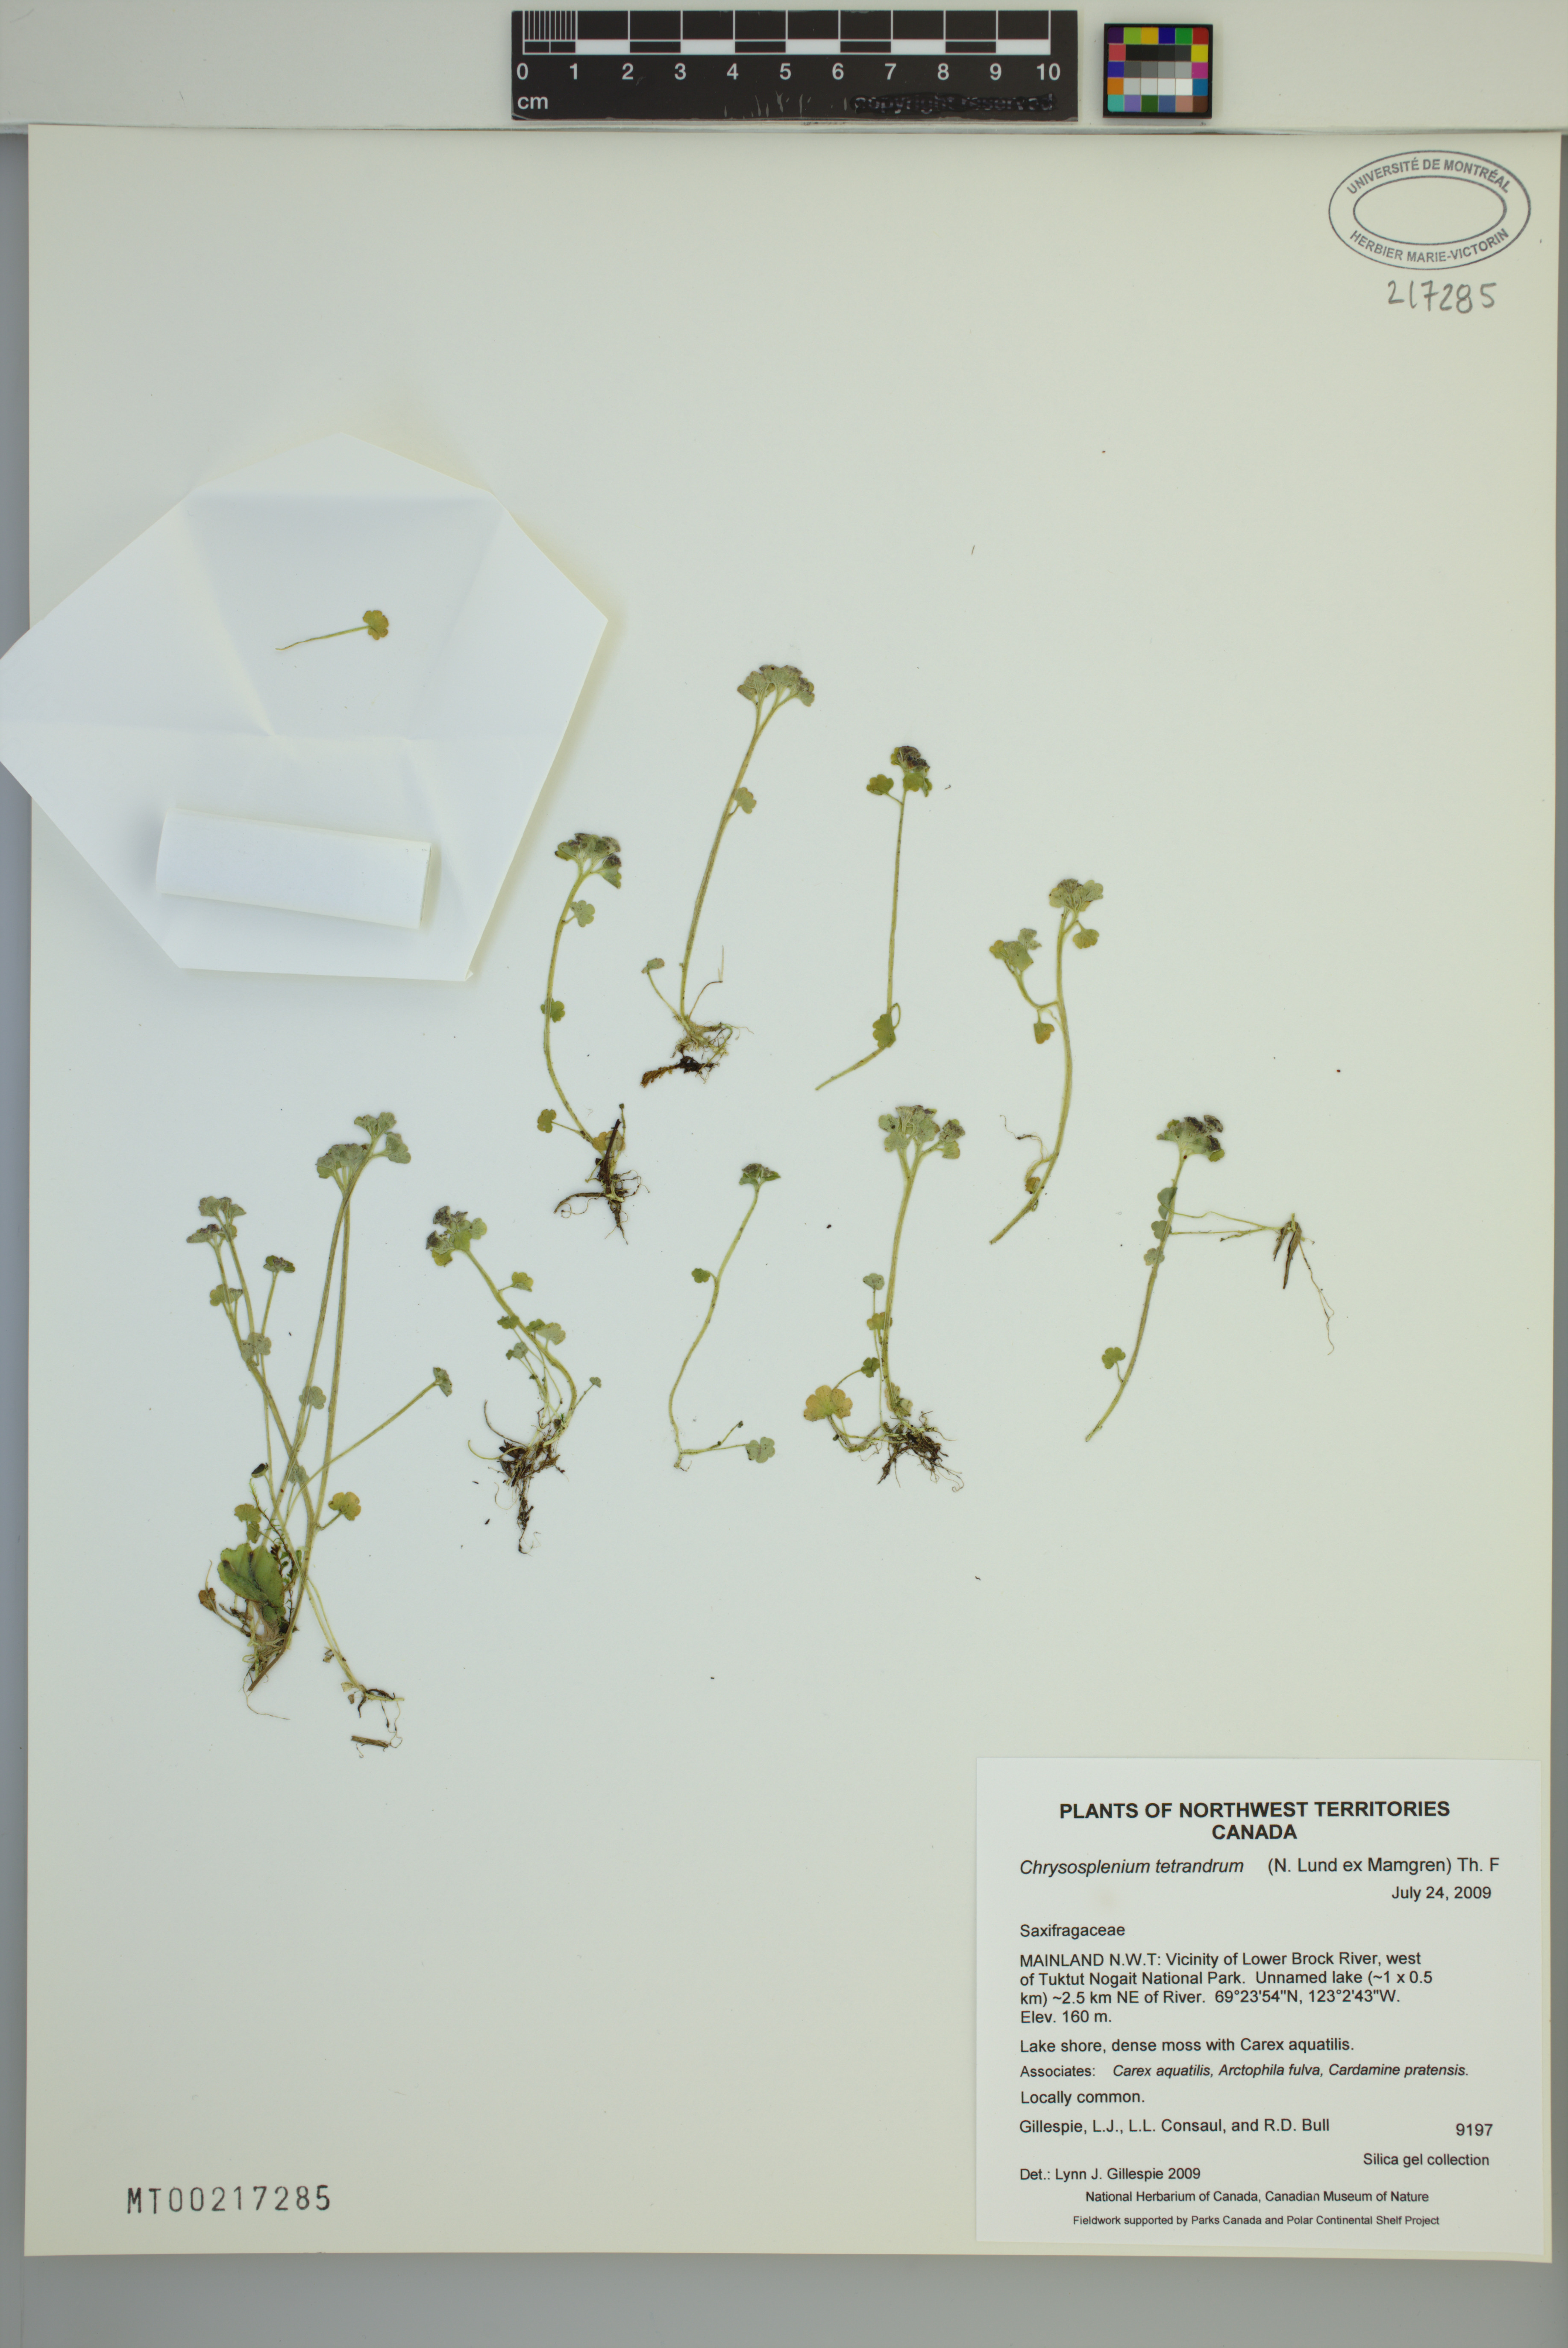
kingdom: Plantae
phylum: Tracheophyta
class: Magnoliopsida
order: Saxifragales
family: Saxifragaceae
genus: Chrysosplenium
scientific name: Chrysosplenium tetrandrum
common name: Green saxifrage
